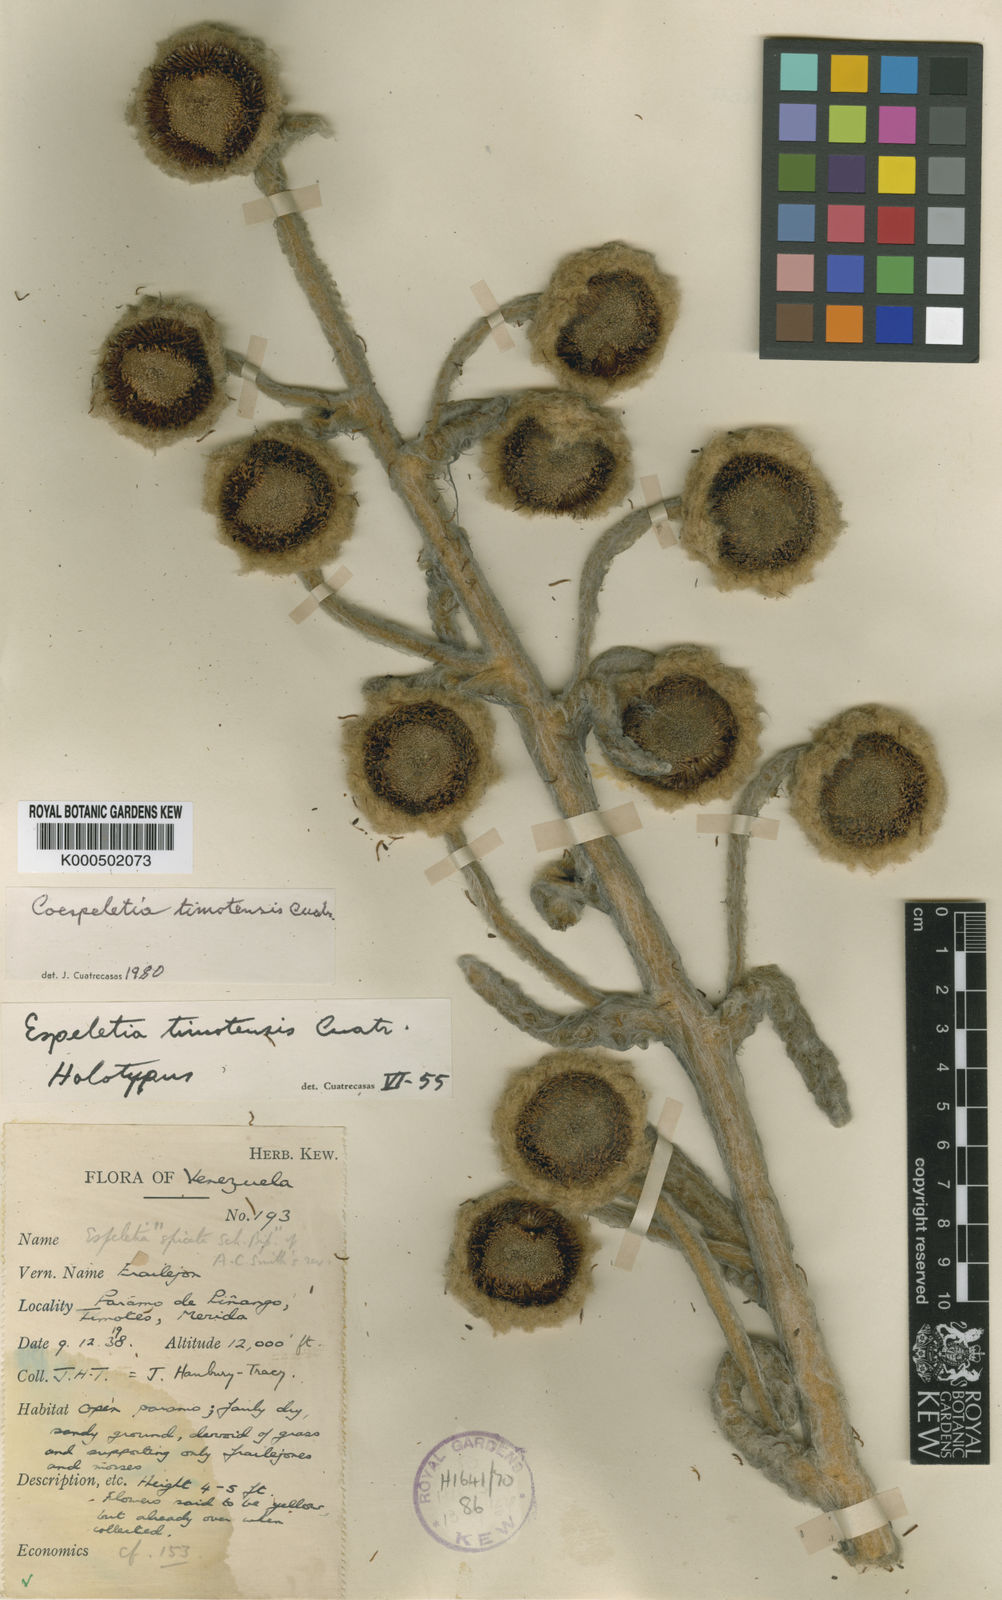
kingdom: Plantae
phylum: Tracheophyta
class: Magnoliopsida
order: Asterales
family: Asteraceae
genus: Espeletia
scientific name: Espeletia timotensis
